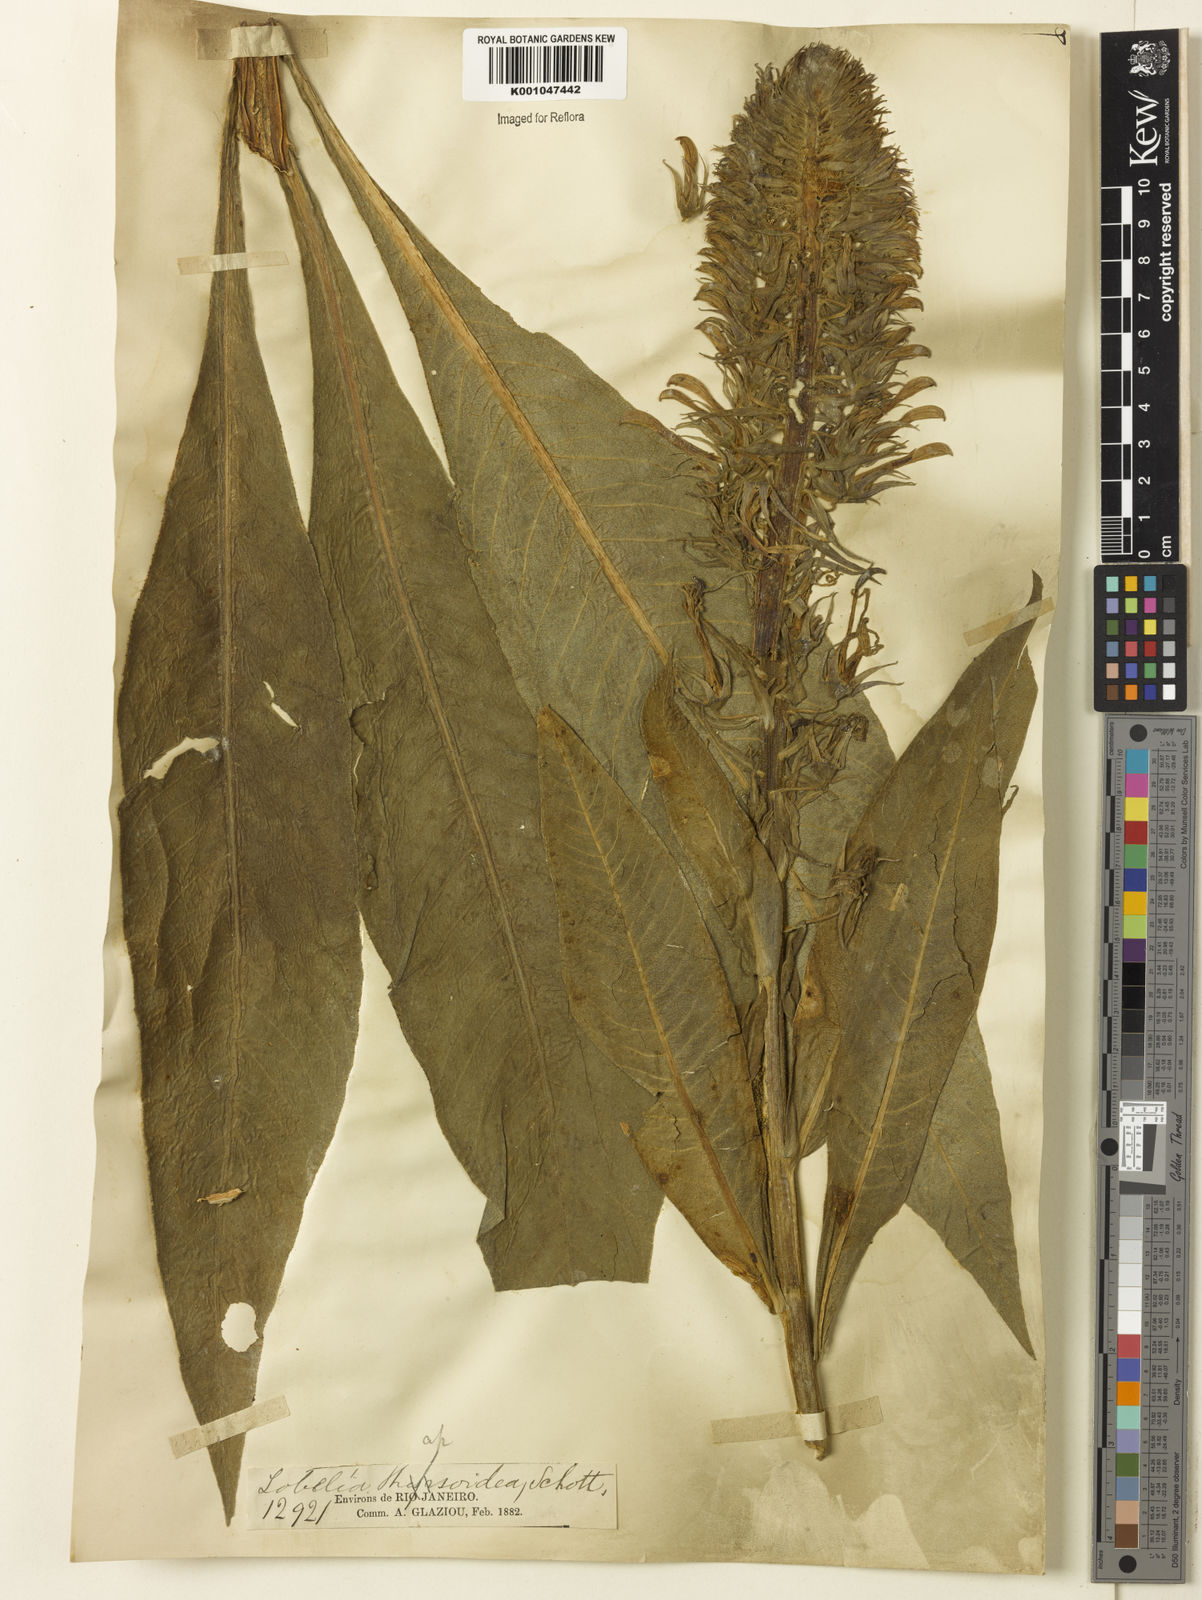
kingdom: Plantae
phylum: Tracheophyta
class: Magnoliopsida
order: Asterales
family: Campanulaceae
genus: Lobelia
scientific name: Lobelia
